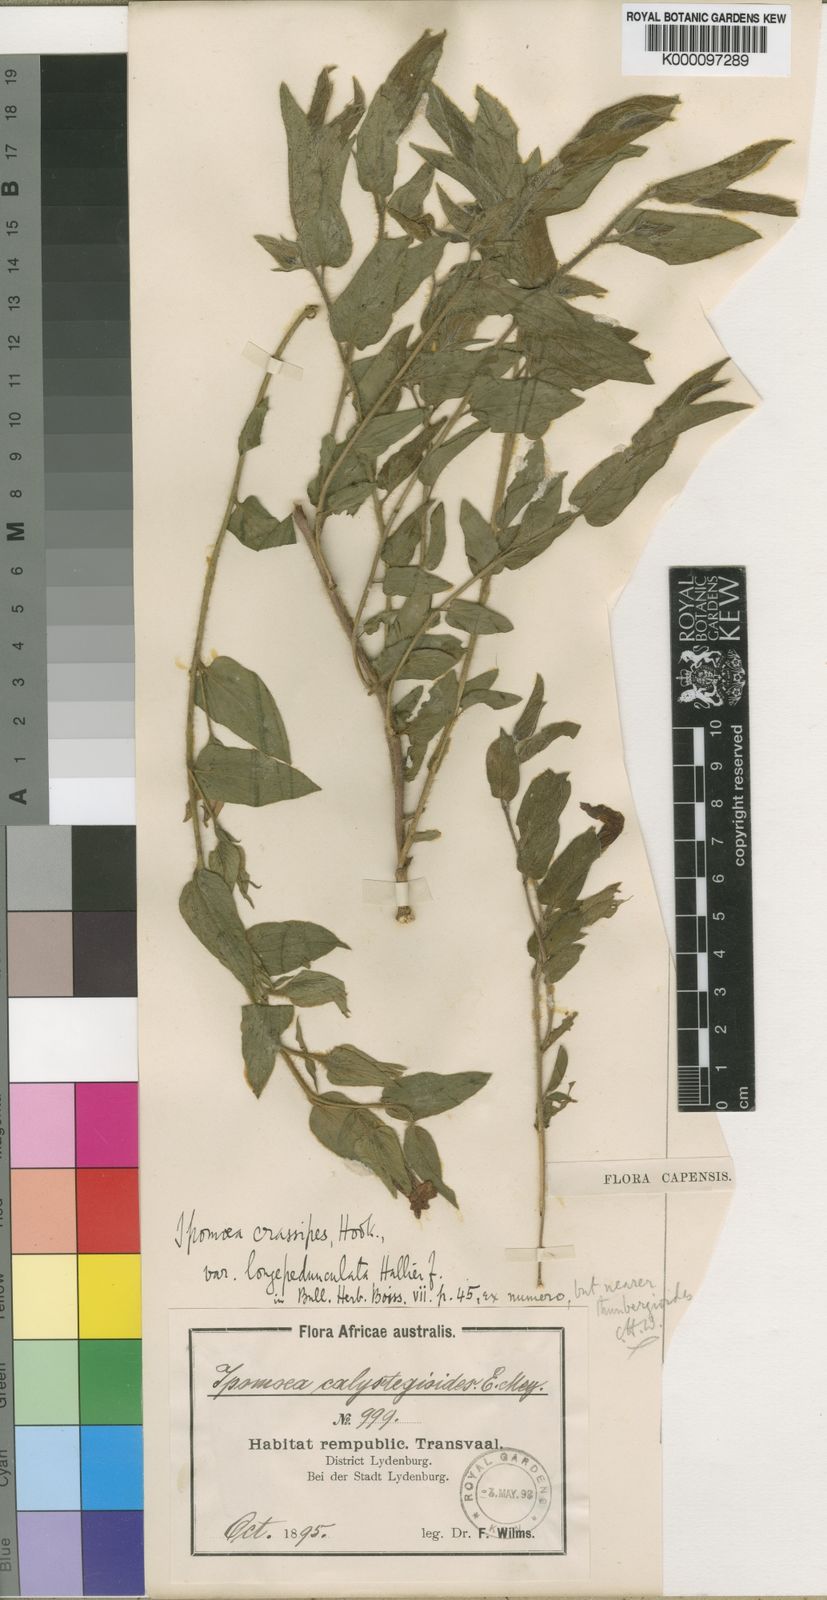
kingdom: Plantae
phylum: Tracheophyta
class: Magnoliopsida
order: Solanales
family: Convolvulaceae
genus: Ipomoea
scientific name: Ipomoea crassipes
